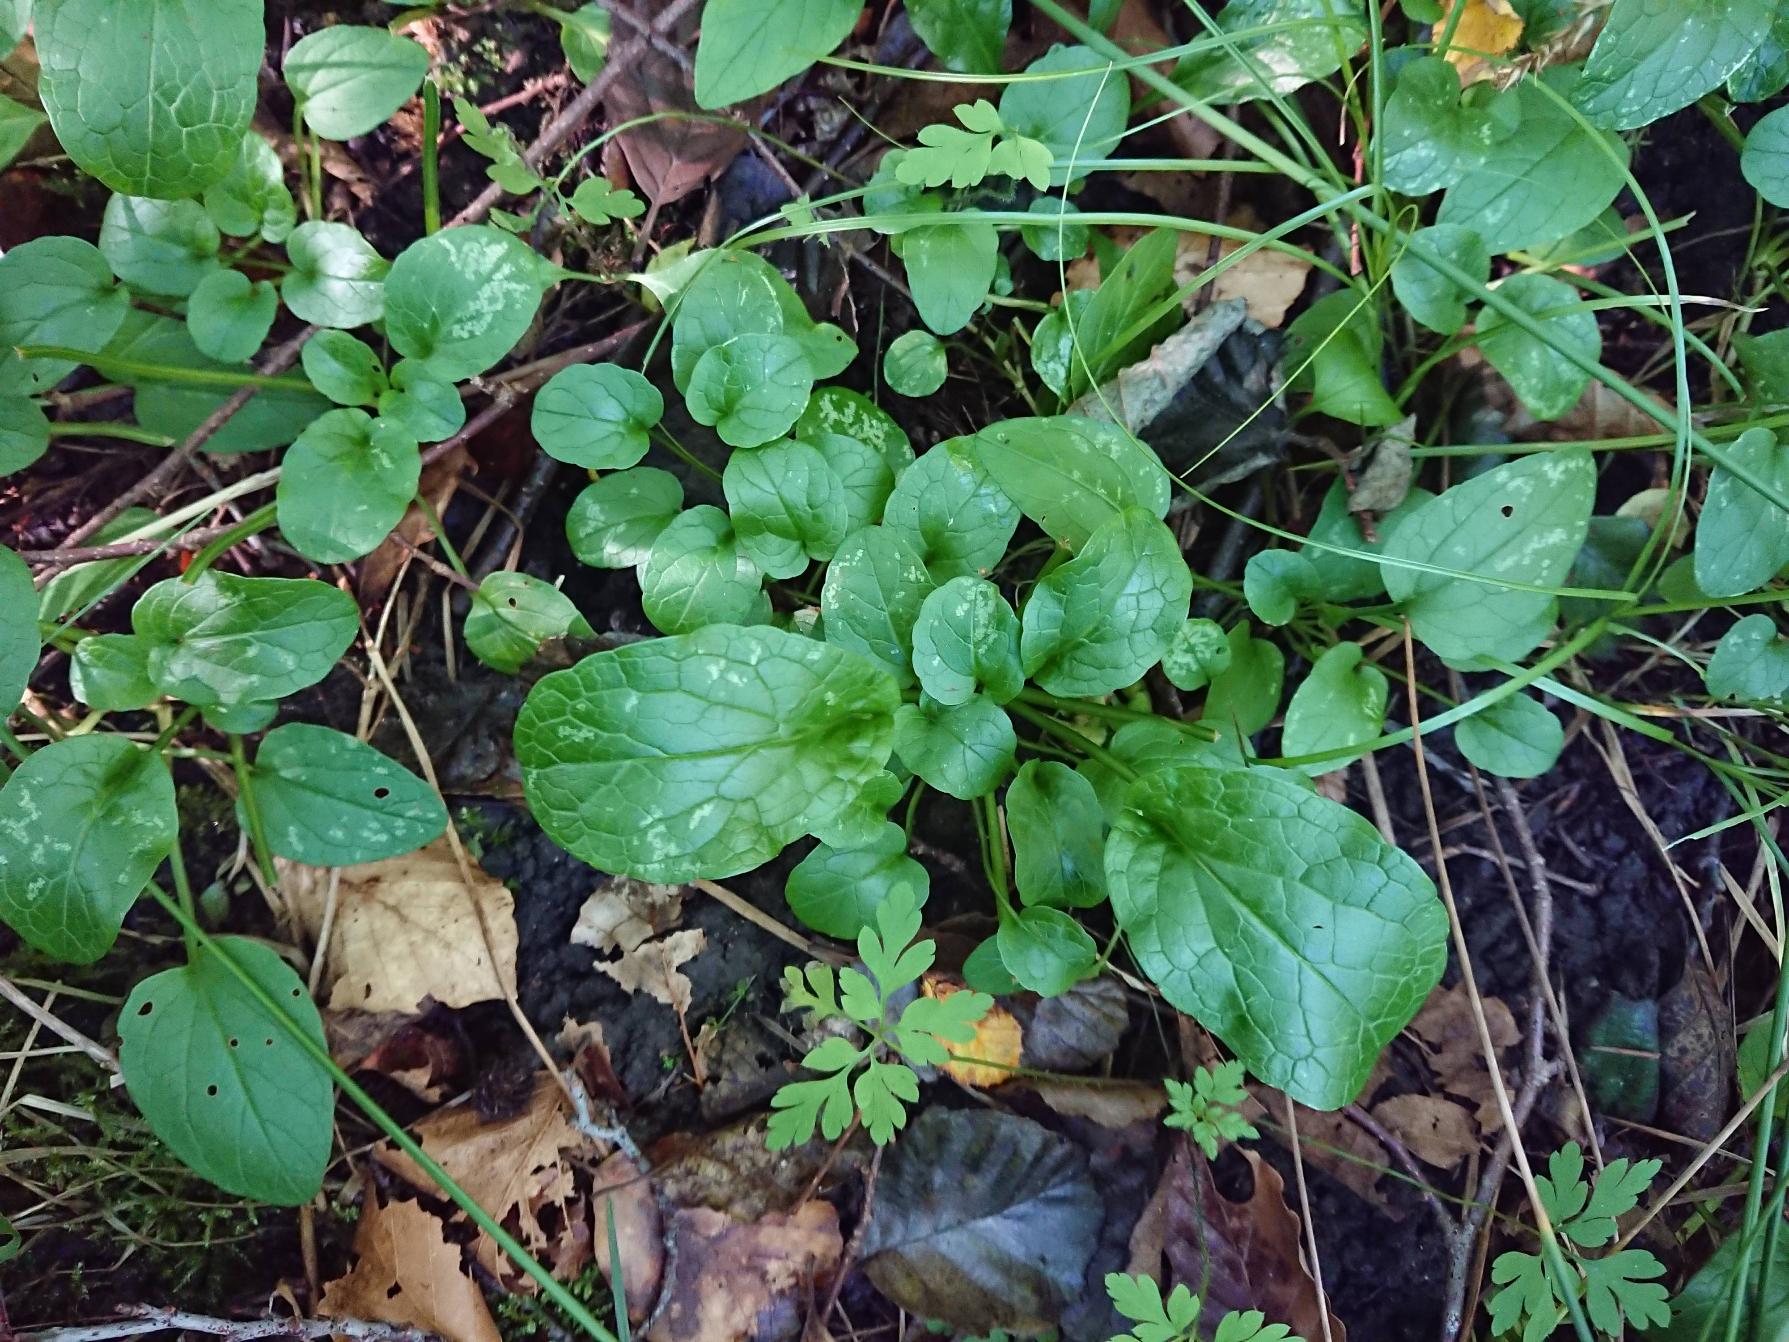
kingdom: Plantae
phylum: Tracheophyta
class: Magnoliopsida
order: Dipsacales
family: Caprifoliaceae
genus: Valeriana
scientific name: Valeriana dioica
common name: Tvebo baldrian
